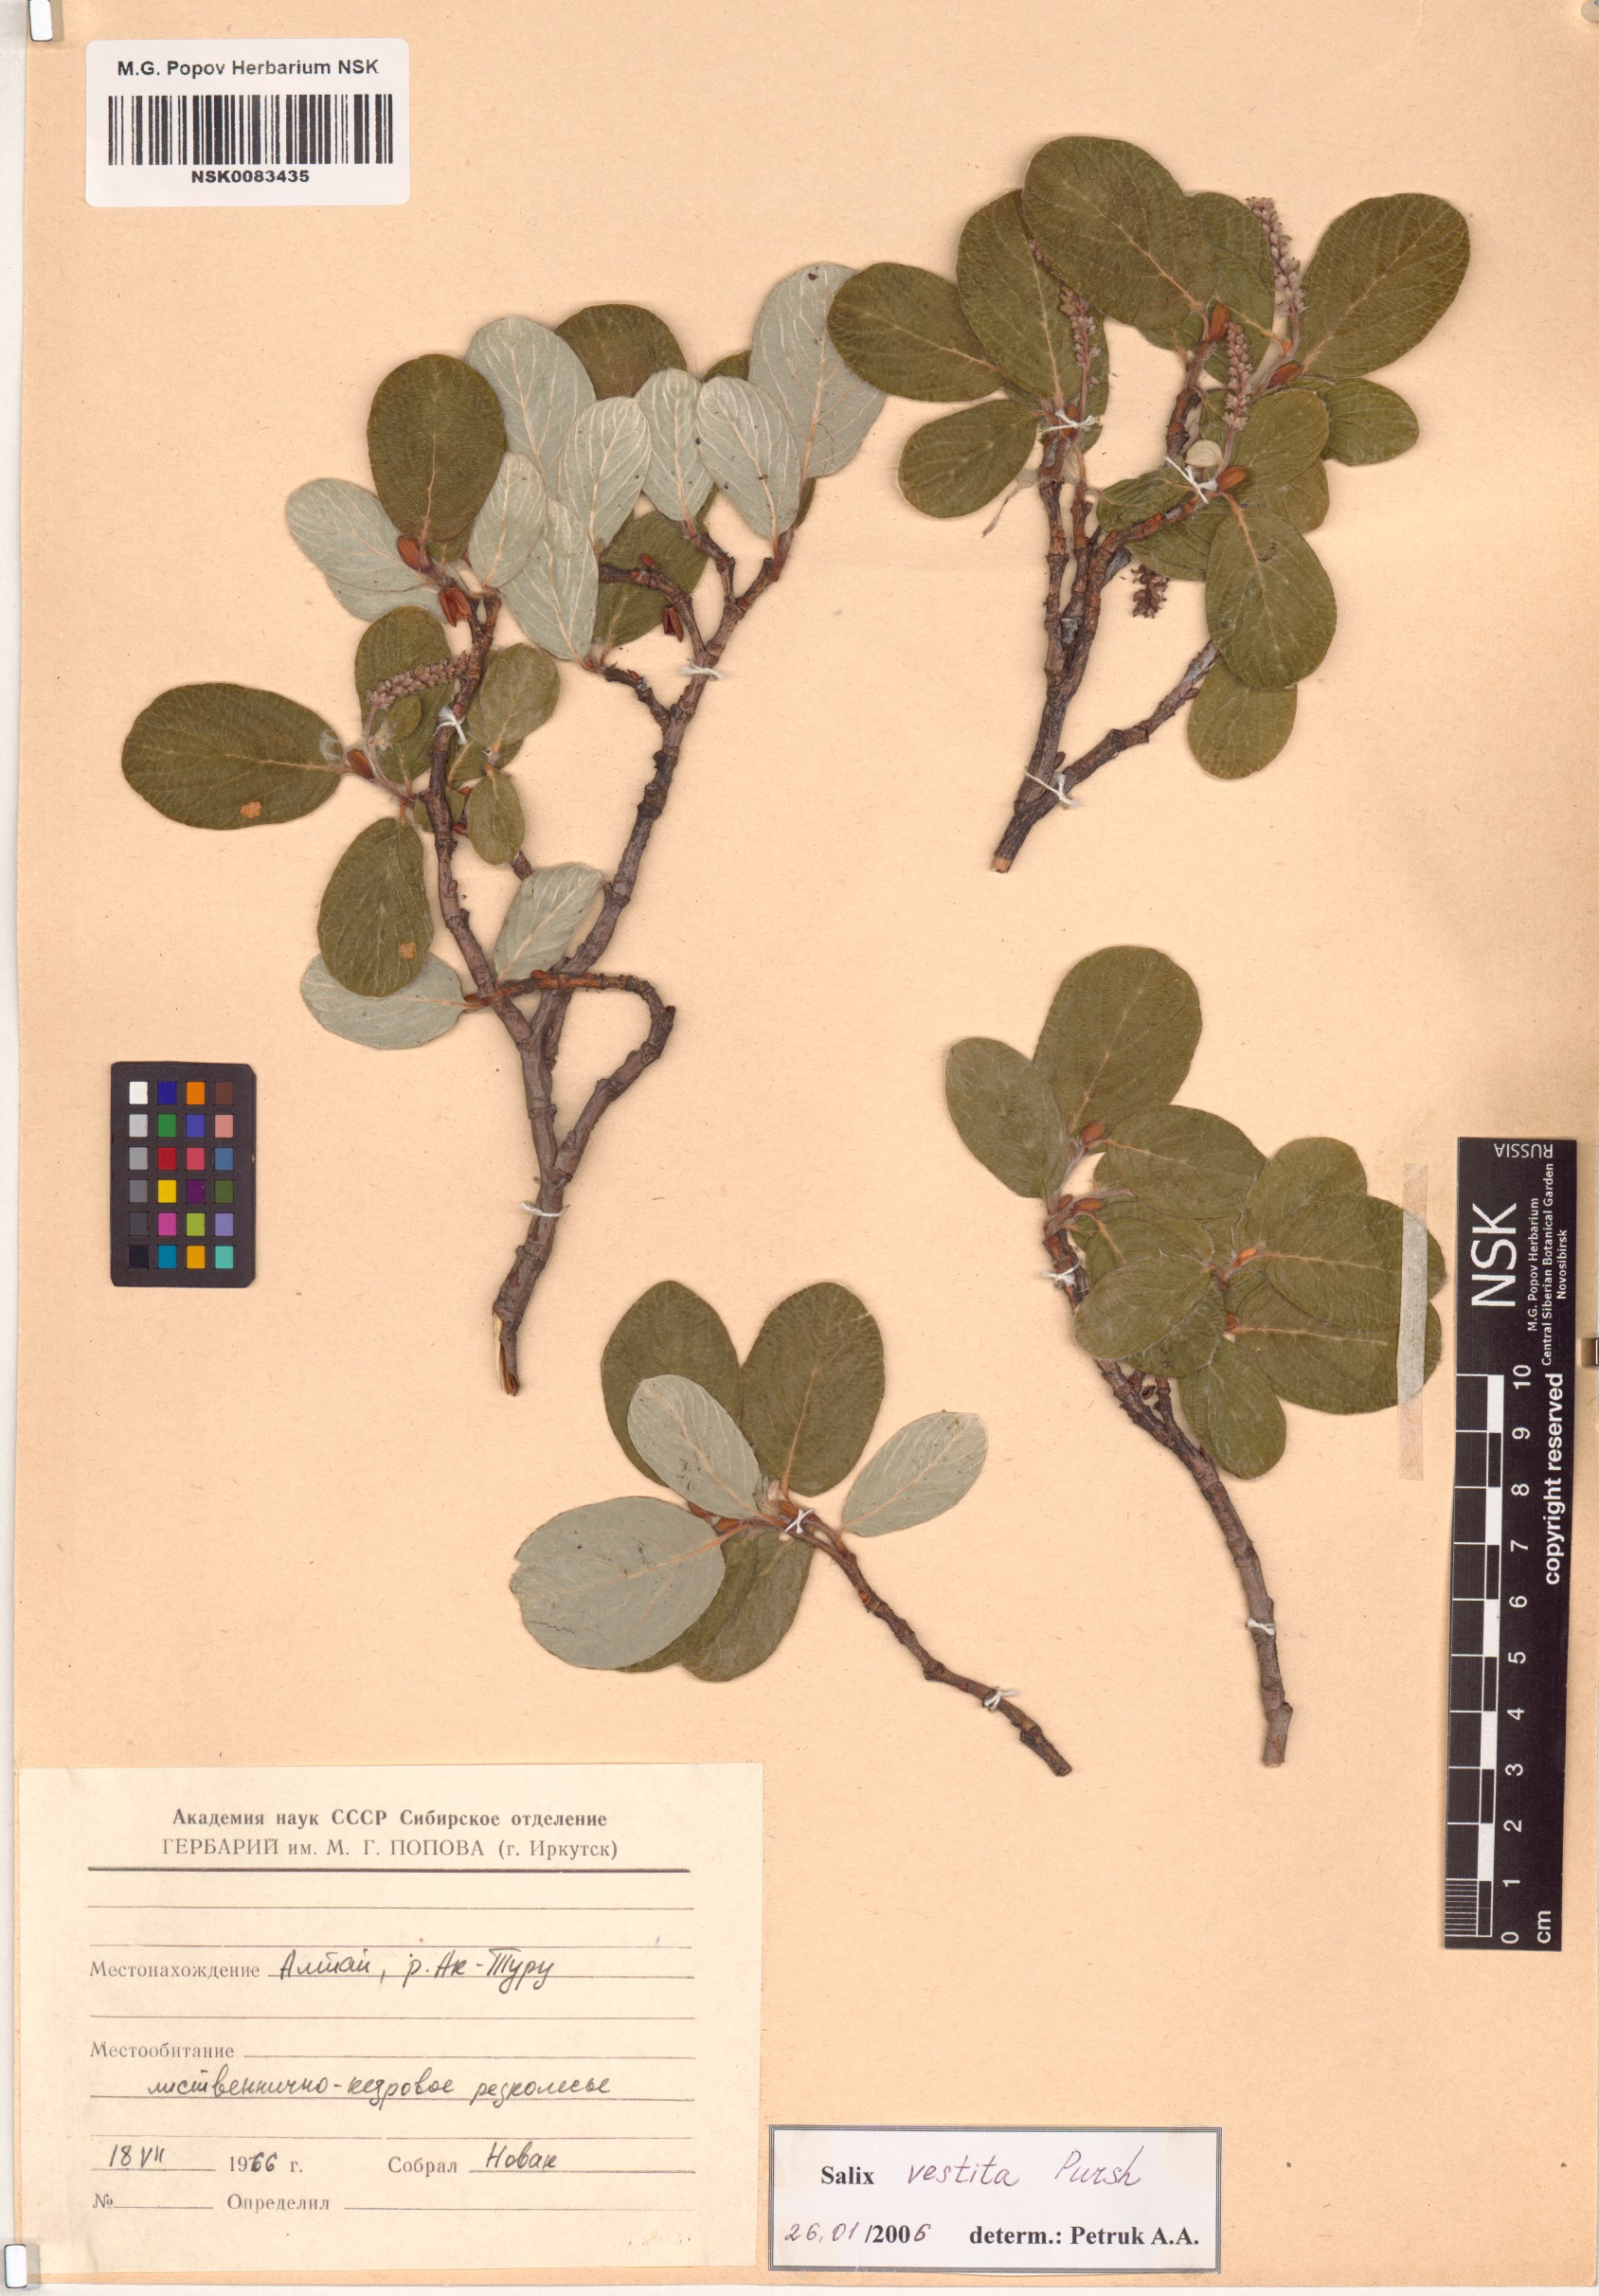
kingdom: Plantae
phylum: Tracheophyta
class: Magnoliopsida
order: Malpighiales
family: Salicaceae
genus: Salix
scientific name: Salix vestita
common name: Hairy willow
